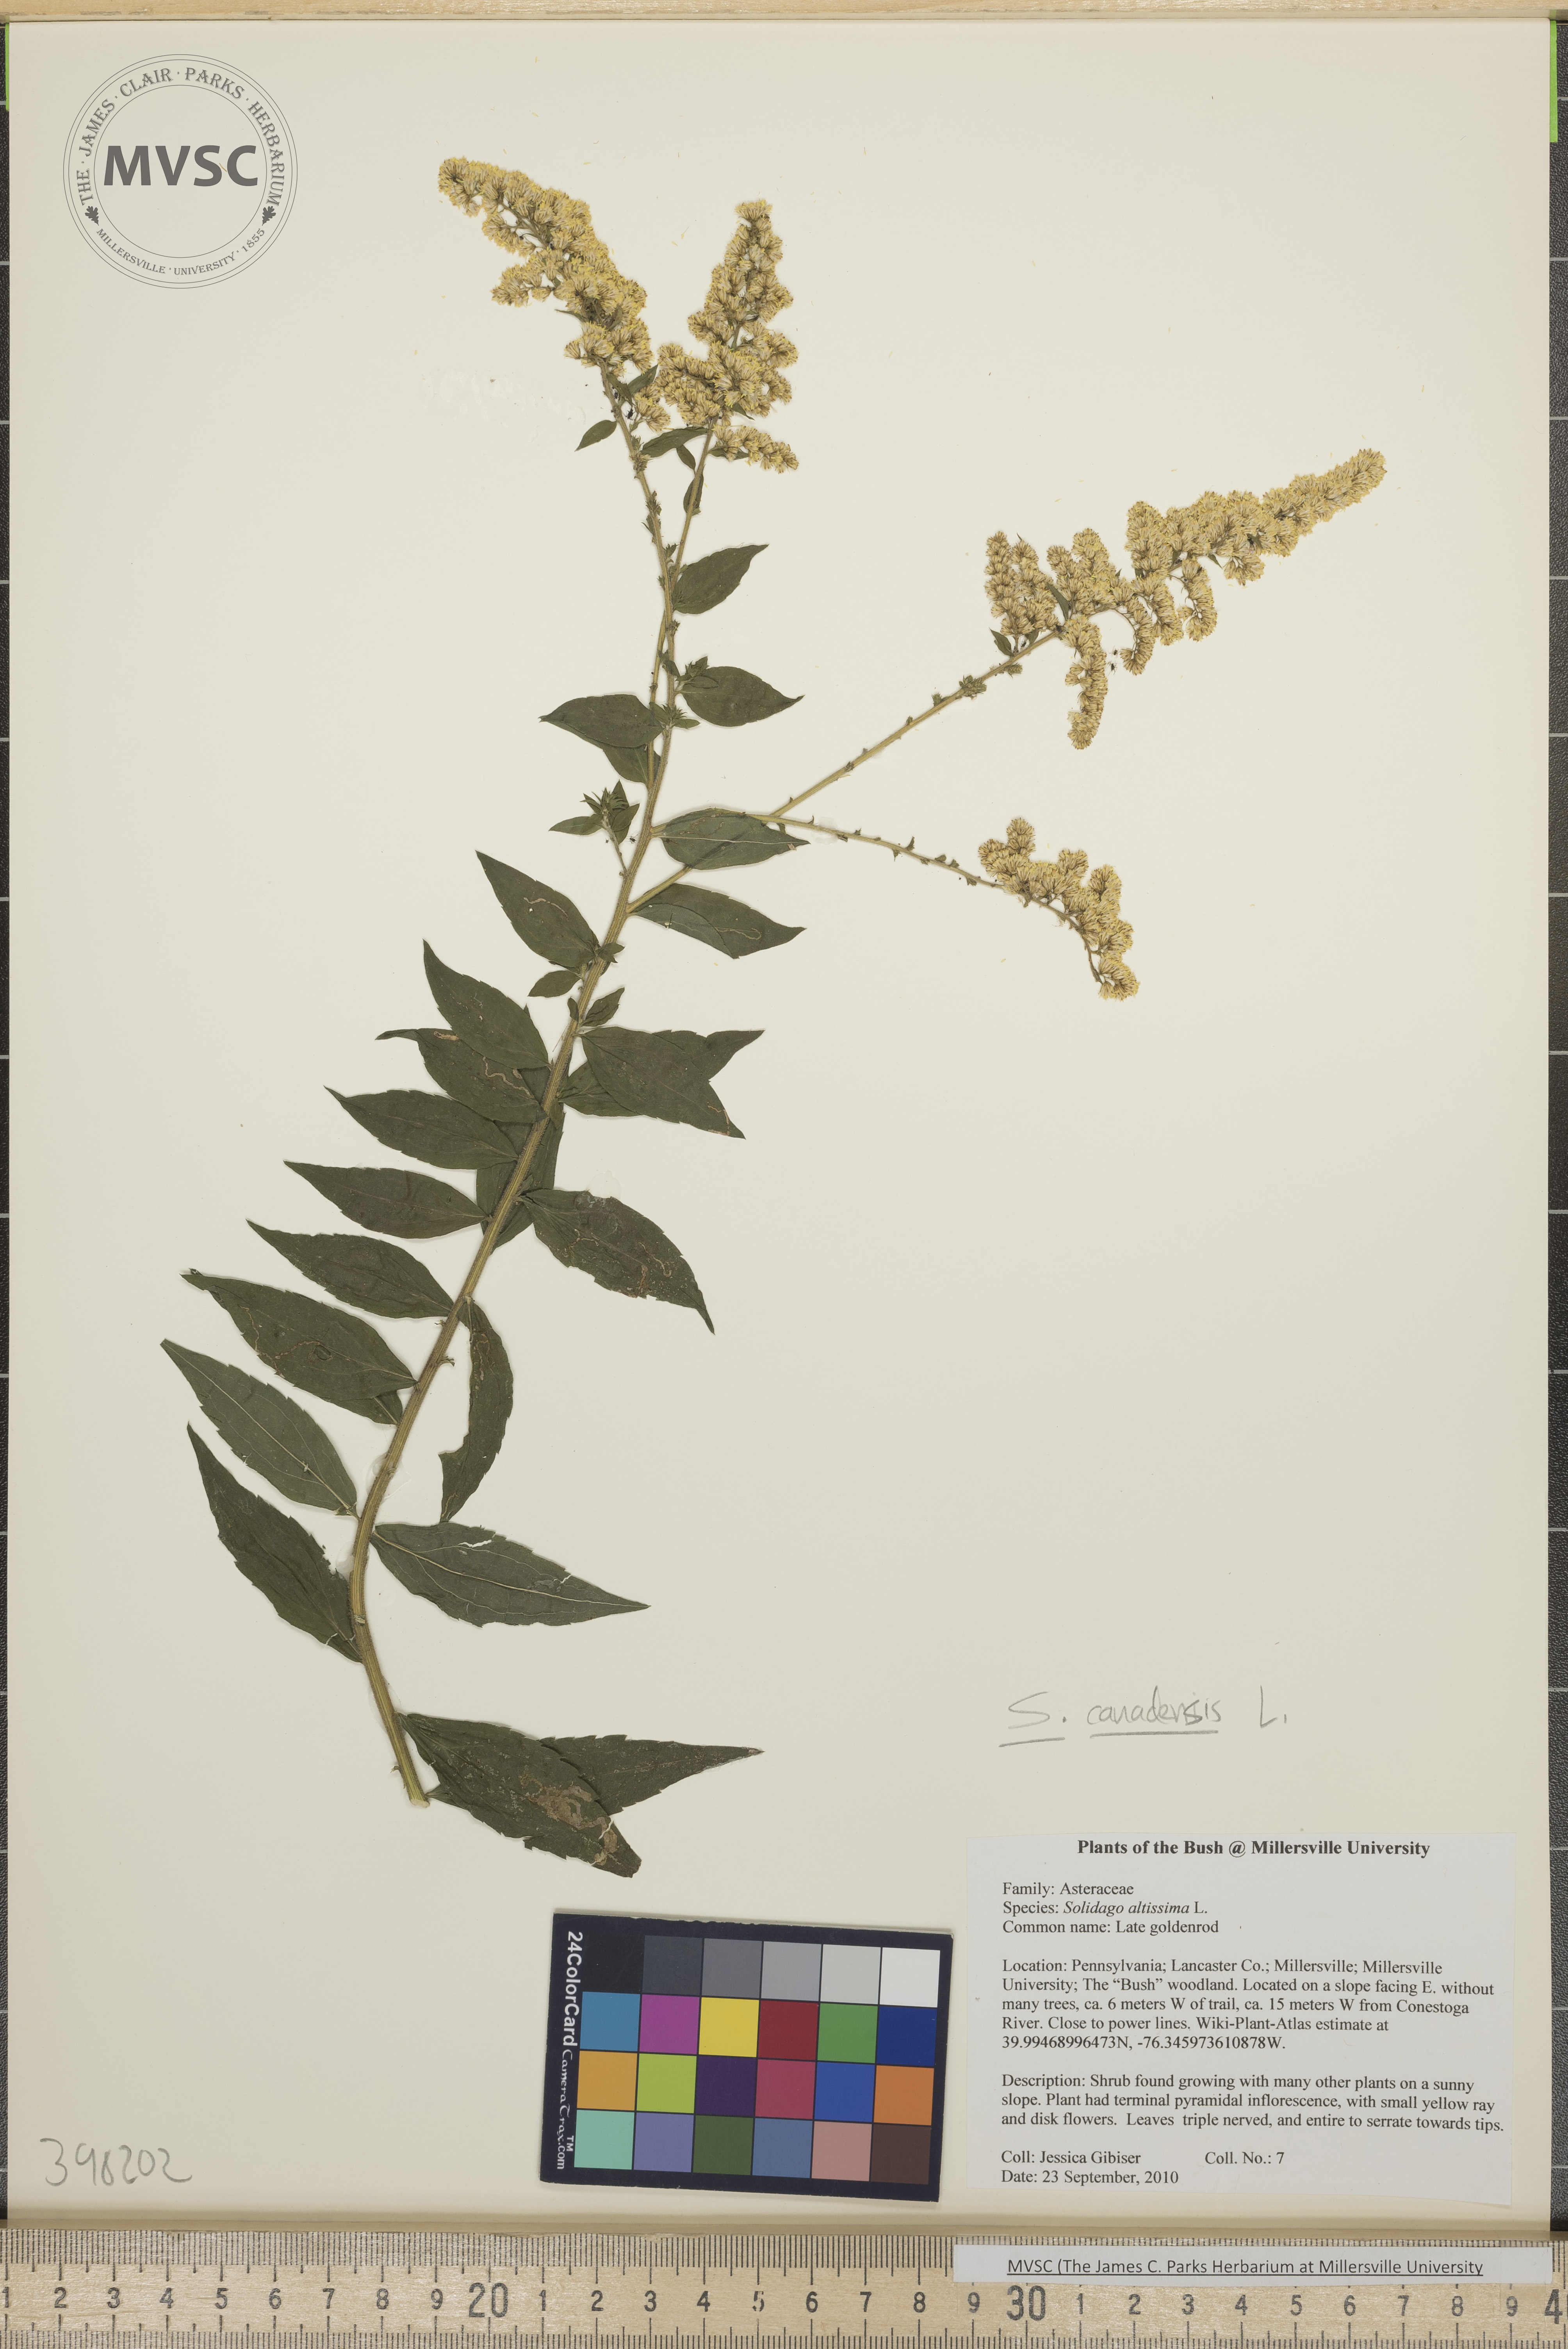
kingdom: Plantae
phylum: Tracheophyta
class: Magnoliopsida
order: Asterales
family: Asteraceae
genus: Solidago
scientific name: Solidago canadensis
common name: Bluestem goldenrod
